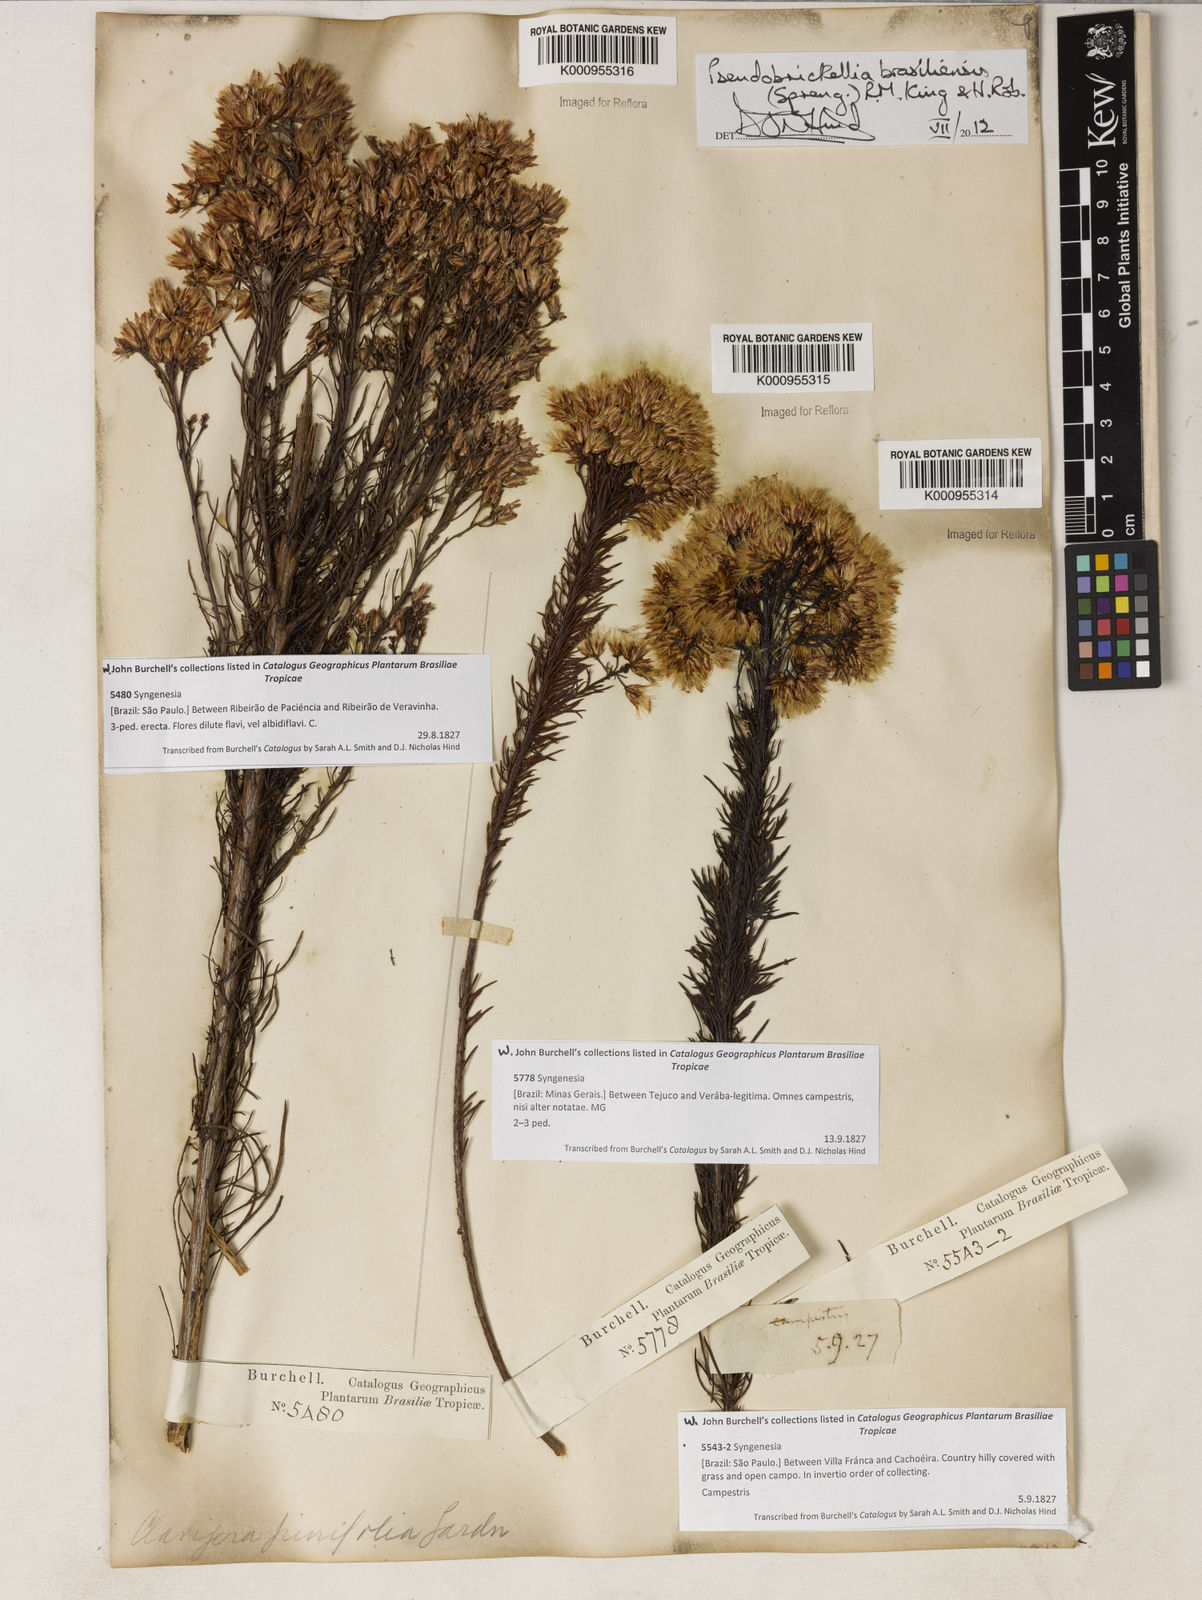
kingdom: Plantae
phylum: Tracheophyta
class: Magnoliopsida
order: Asterales
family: Asteraceae
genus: Pseudobrickellia
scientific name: Pseudobrickellia brasiliensis
